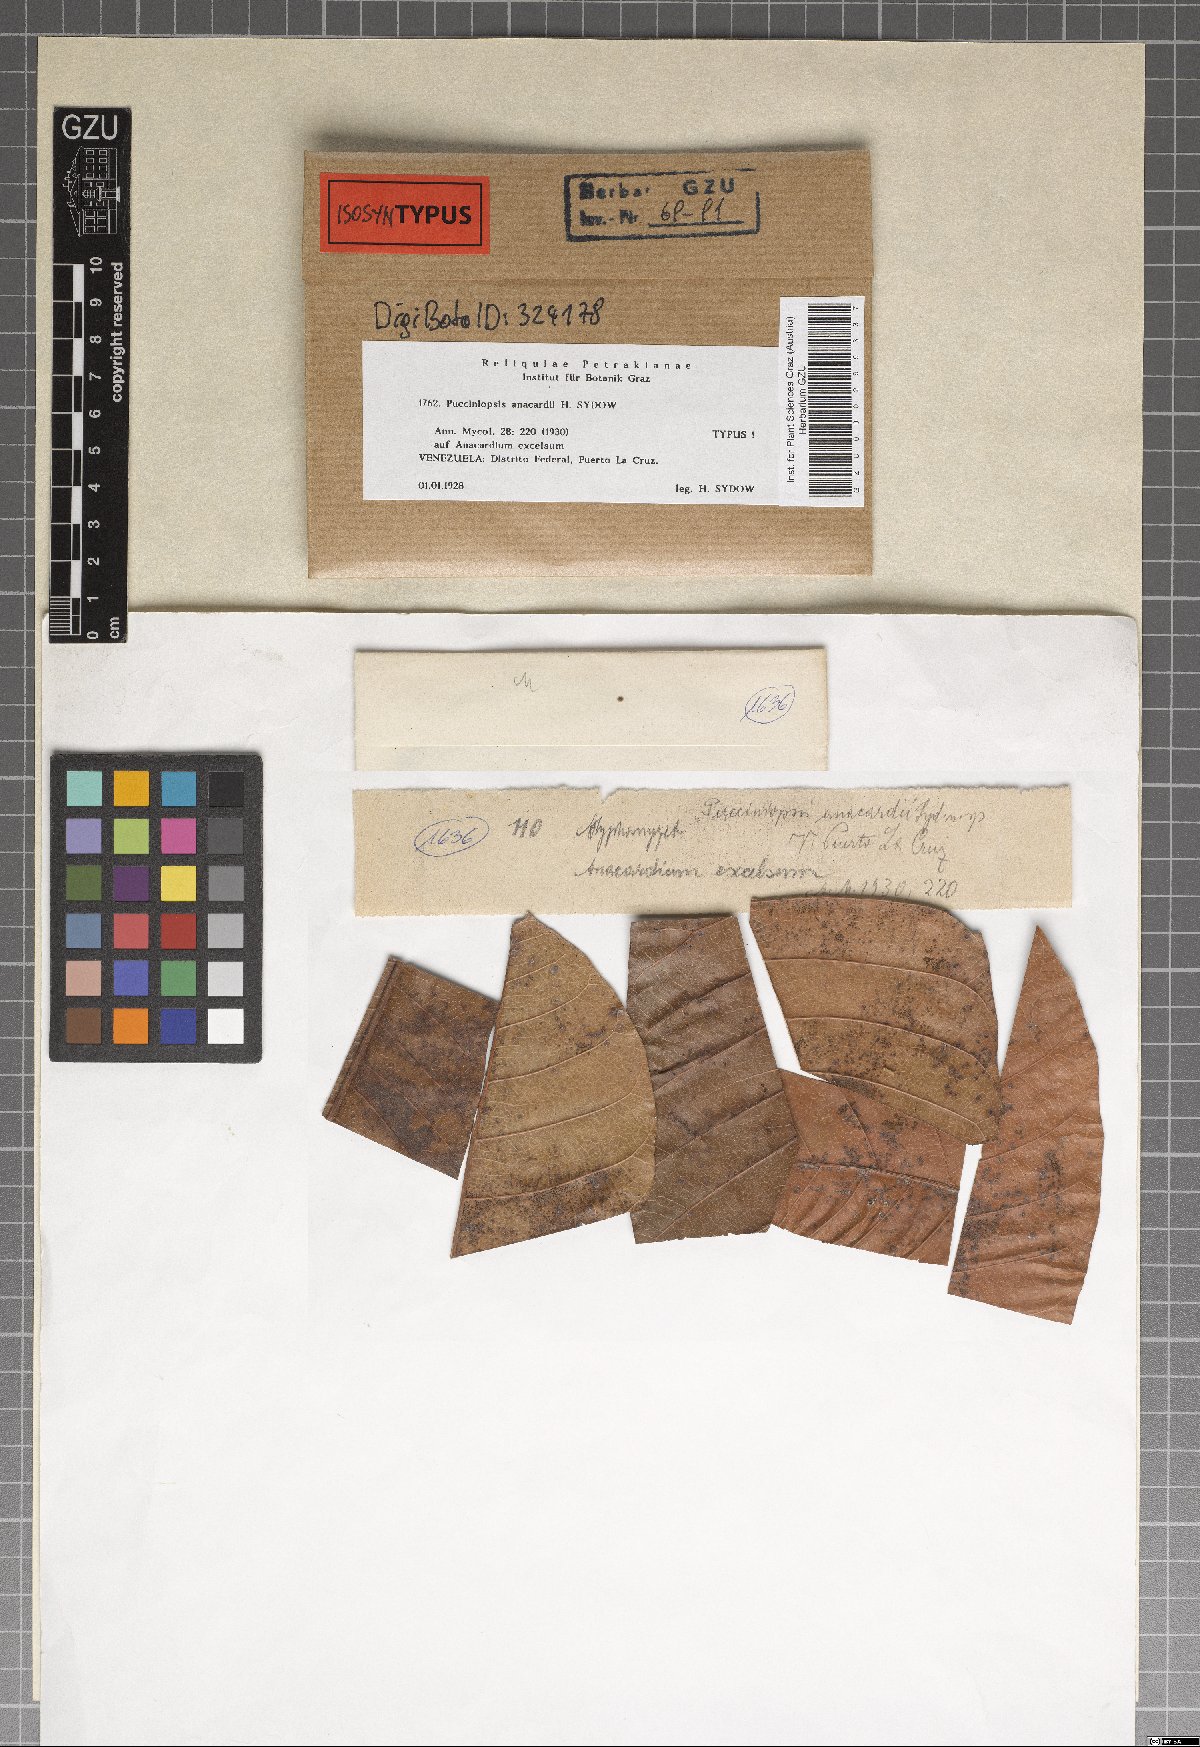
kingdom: Fungi
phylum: Ascomycota
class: Dothideomycetes
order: Mycosphaerellales
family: Mycosphaerellaceae
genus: Stigmina
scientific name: Stigmina anacardii
